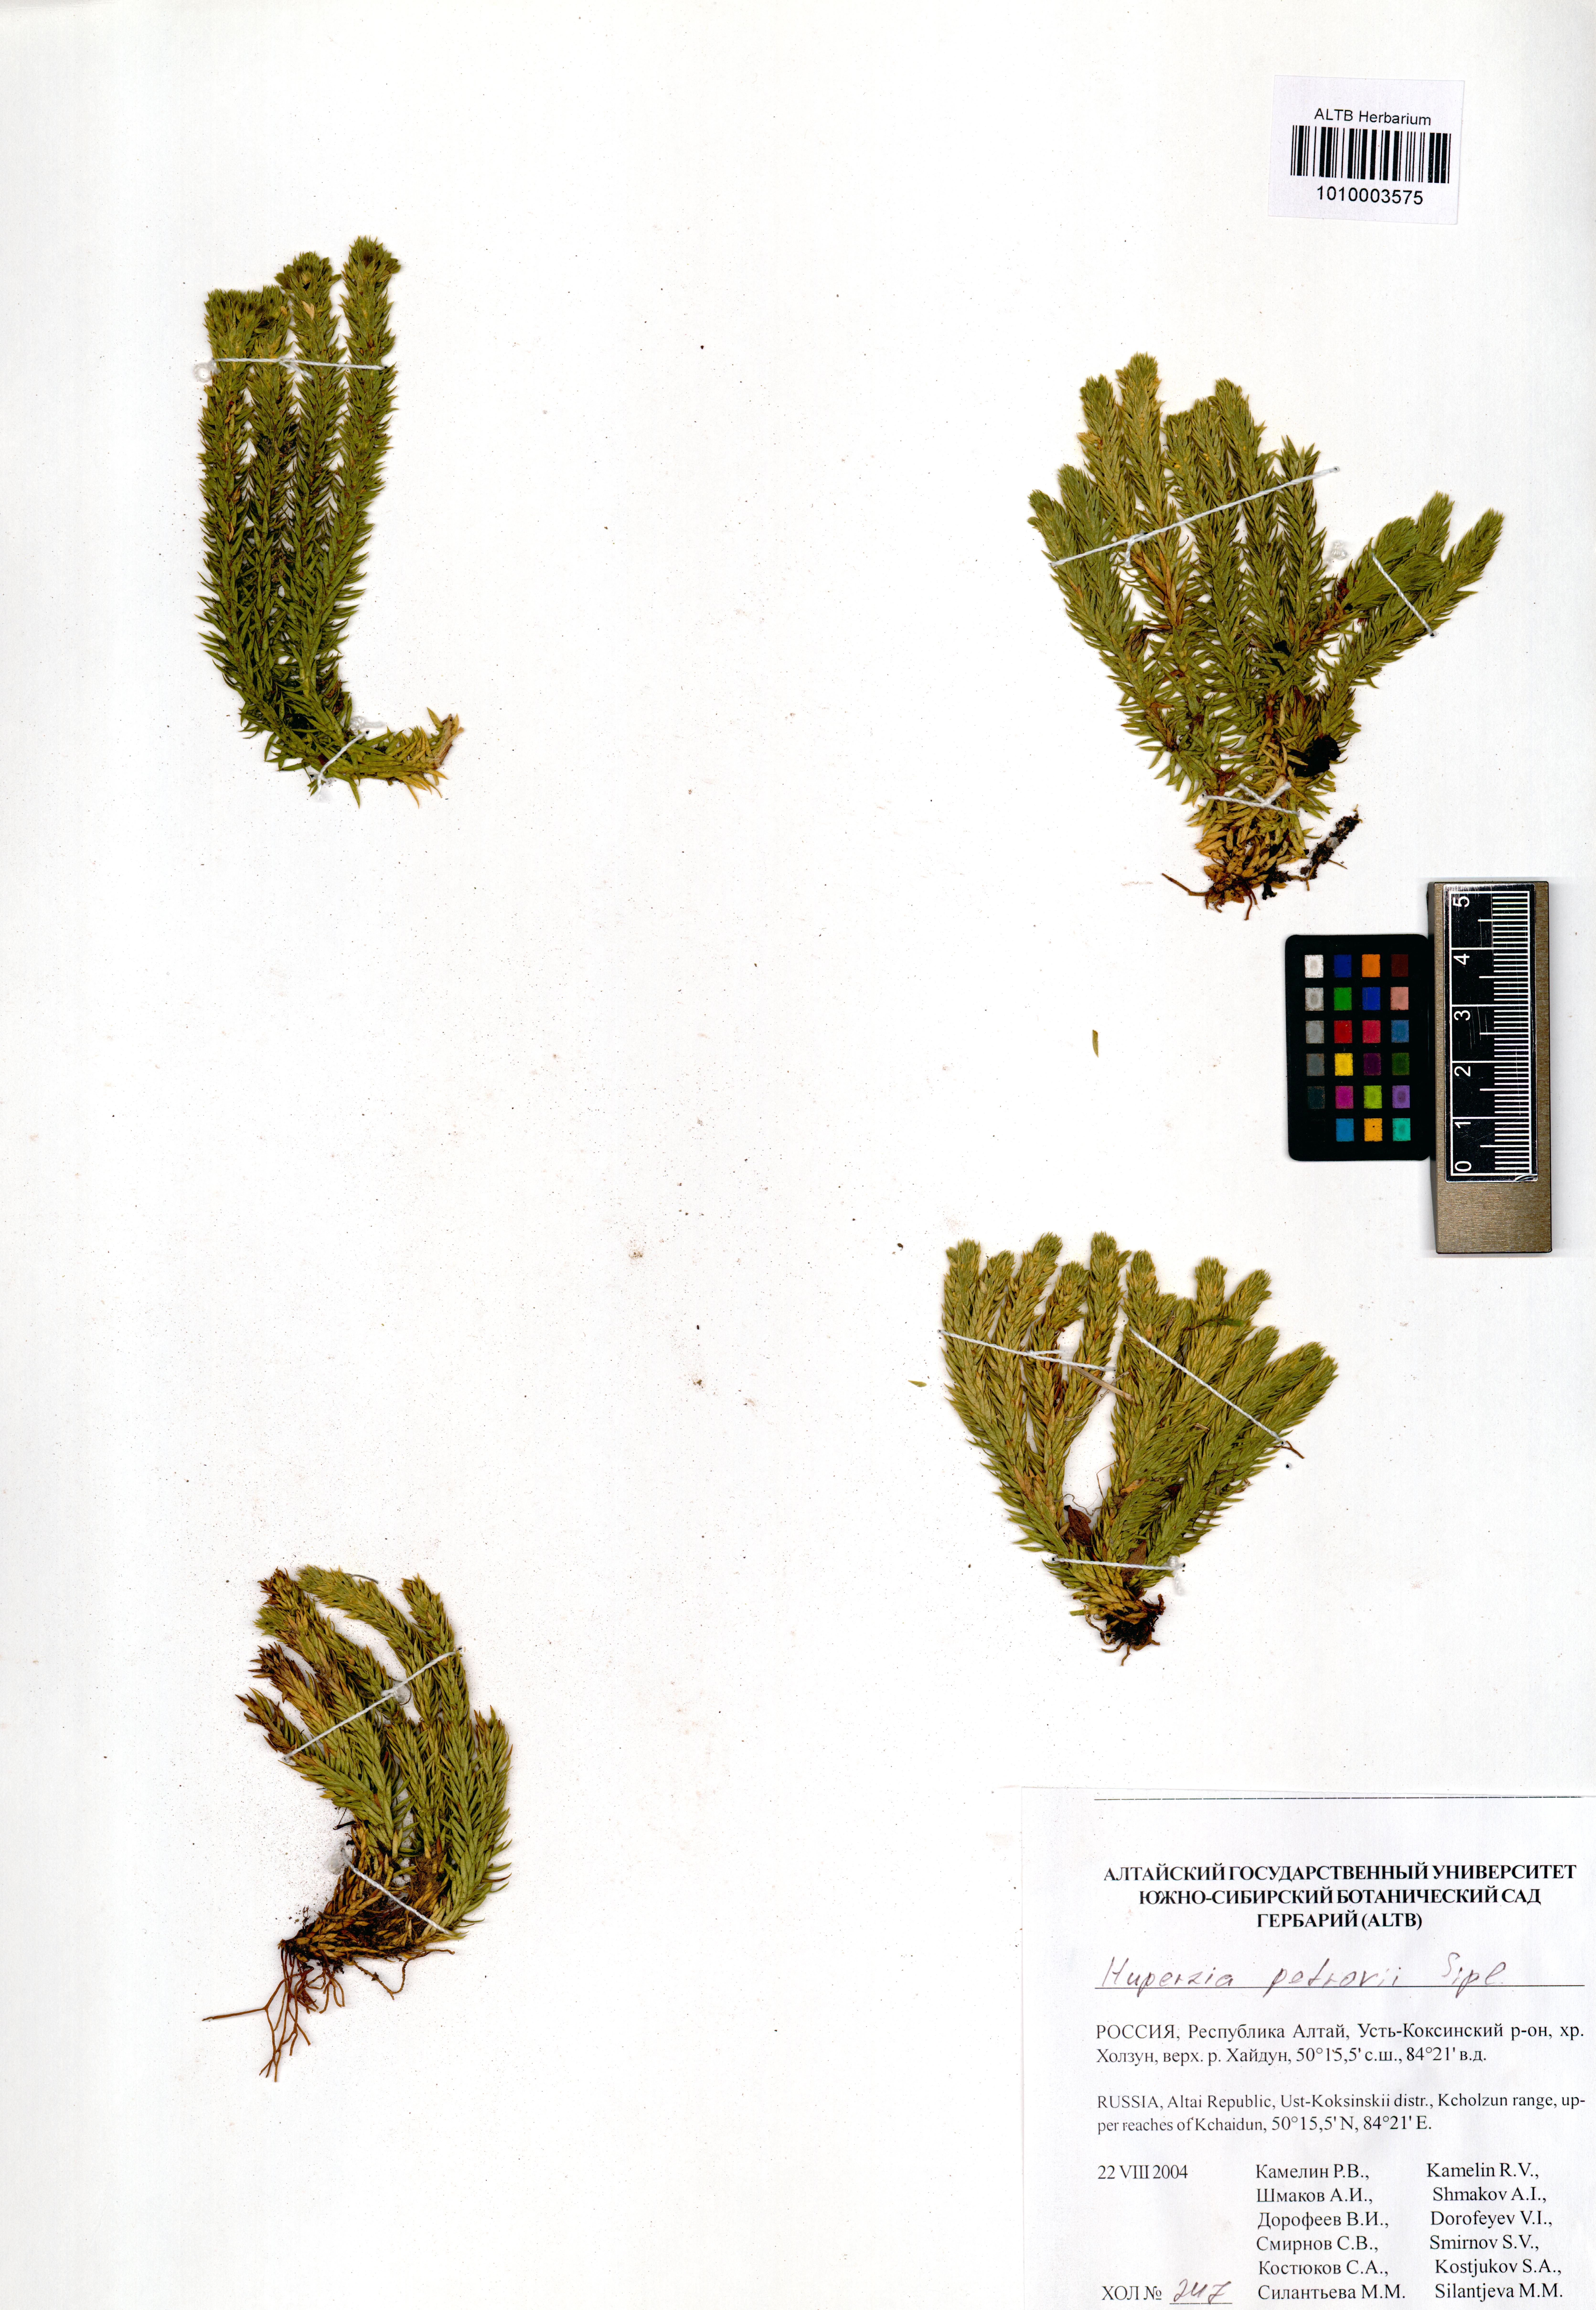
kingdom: Plantae
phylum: Tracheophyta
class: Lycopodiopsida
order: Lycopodiales
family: Lycopodiaceae
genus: Huperzia
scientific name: Huperzia selago
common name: Northern firmoss
